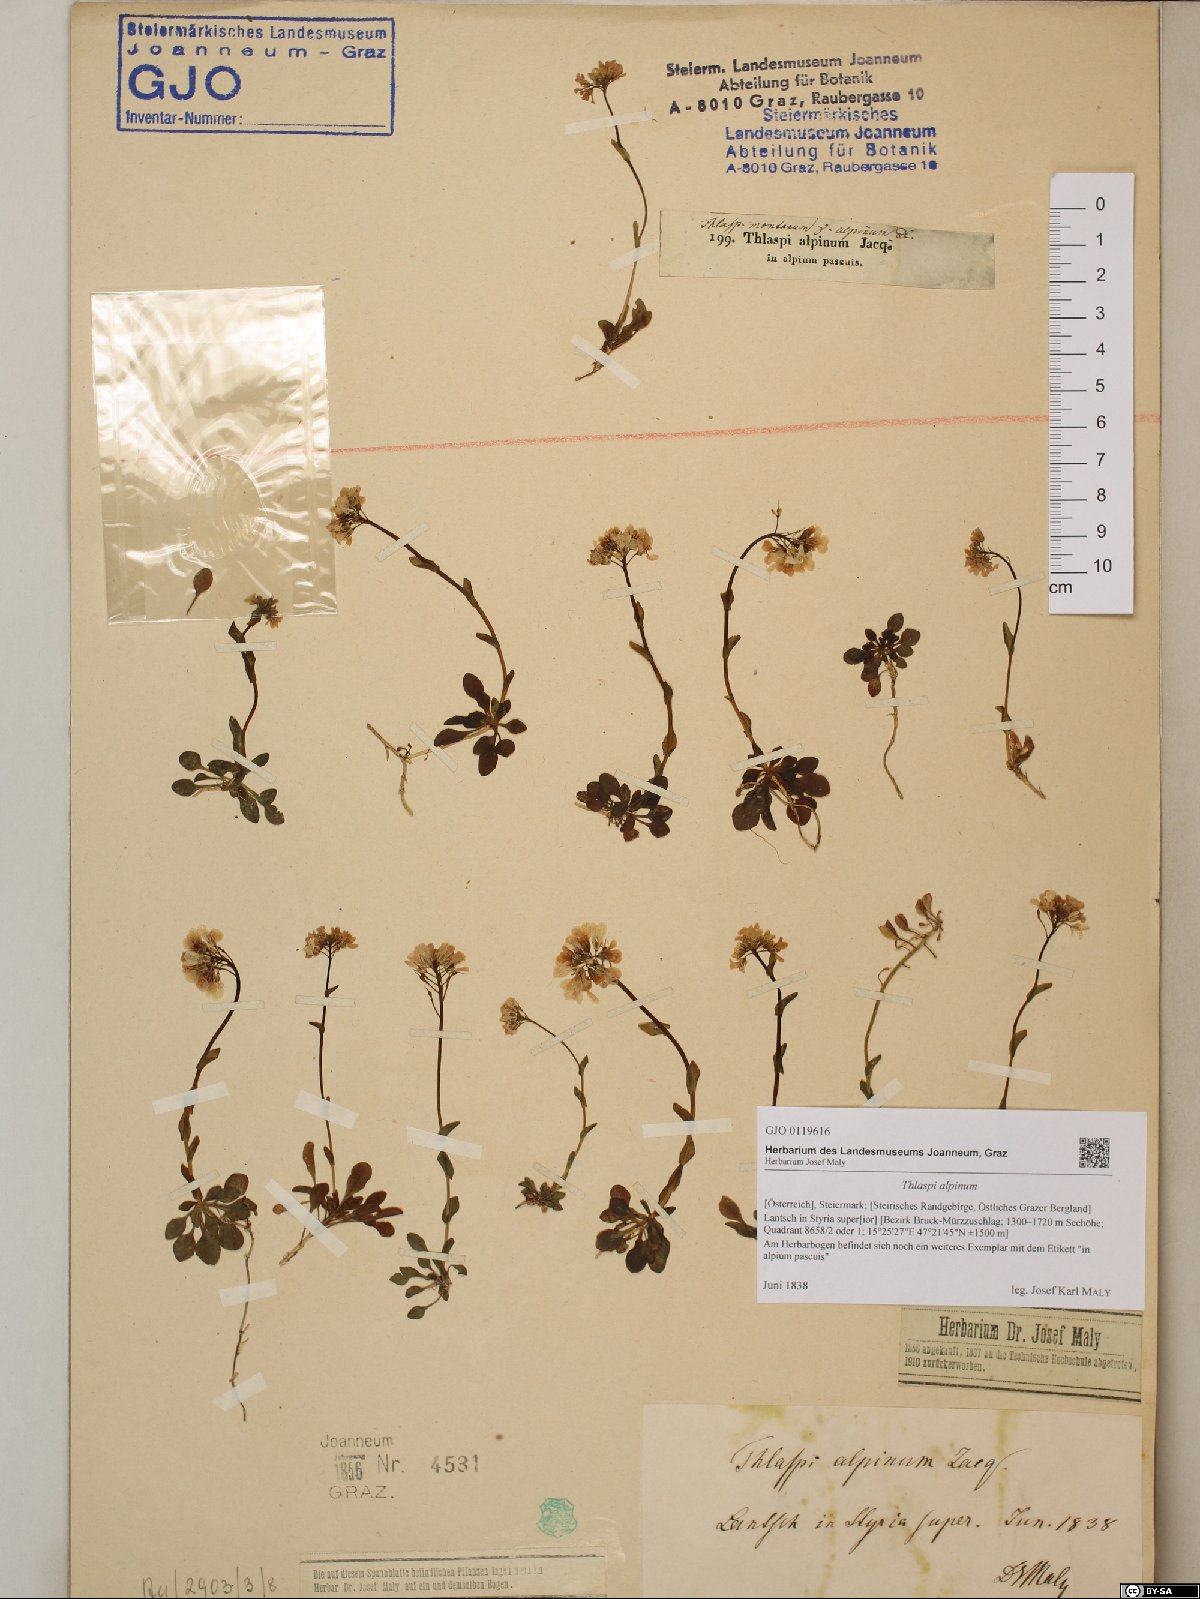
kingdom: Plantae
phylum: Tracheophyta
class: Magnoliopsida
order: Brassicales
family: Brassicaceae
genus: Noccaea
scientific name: Noccaea alpestris
